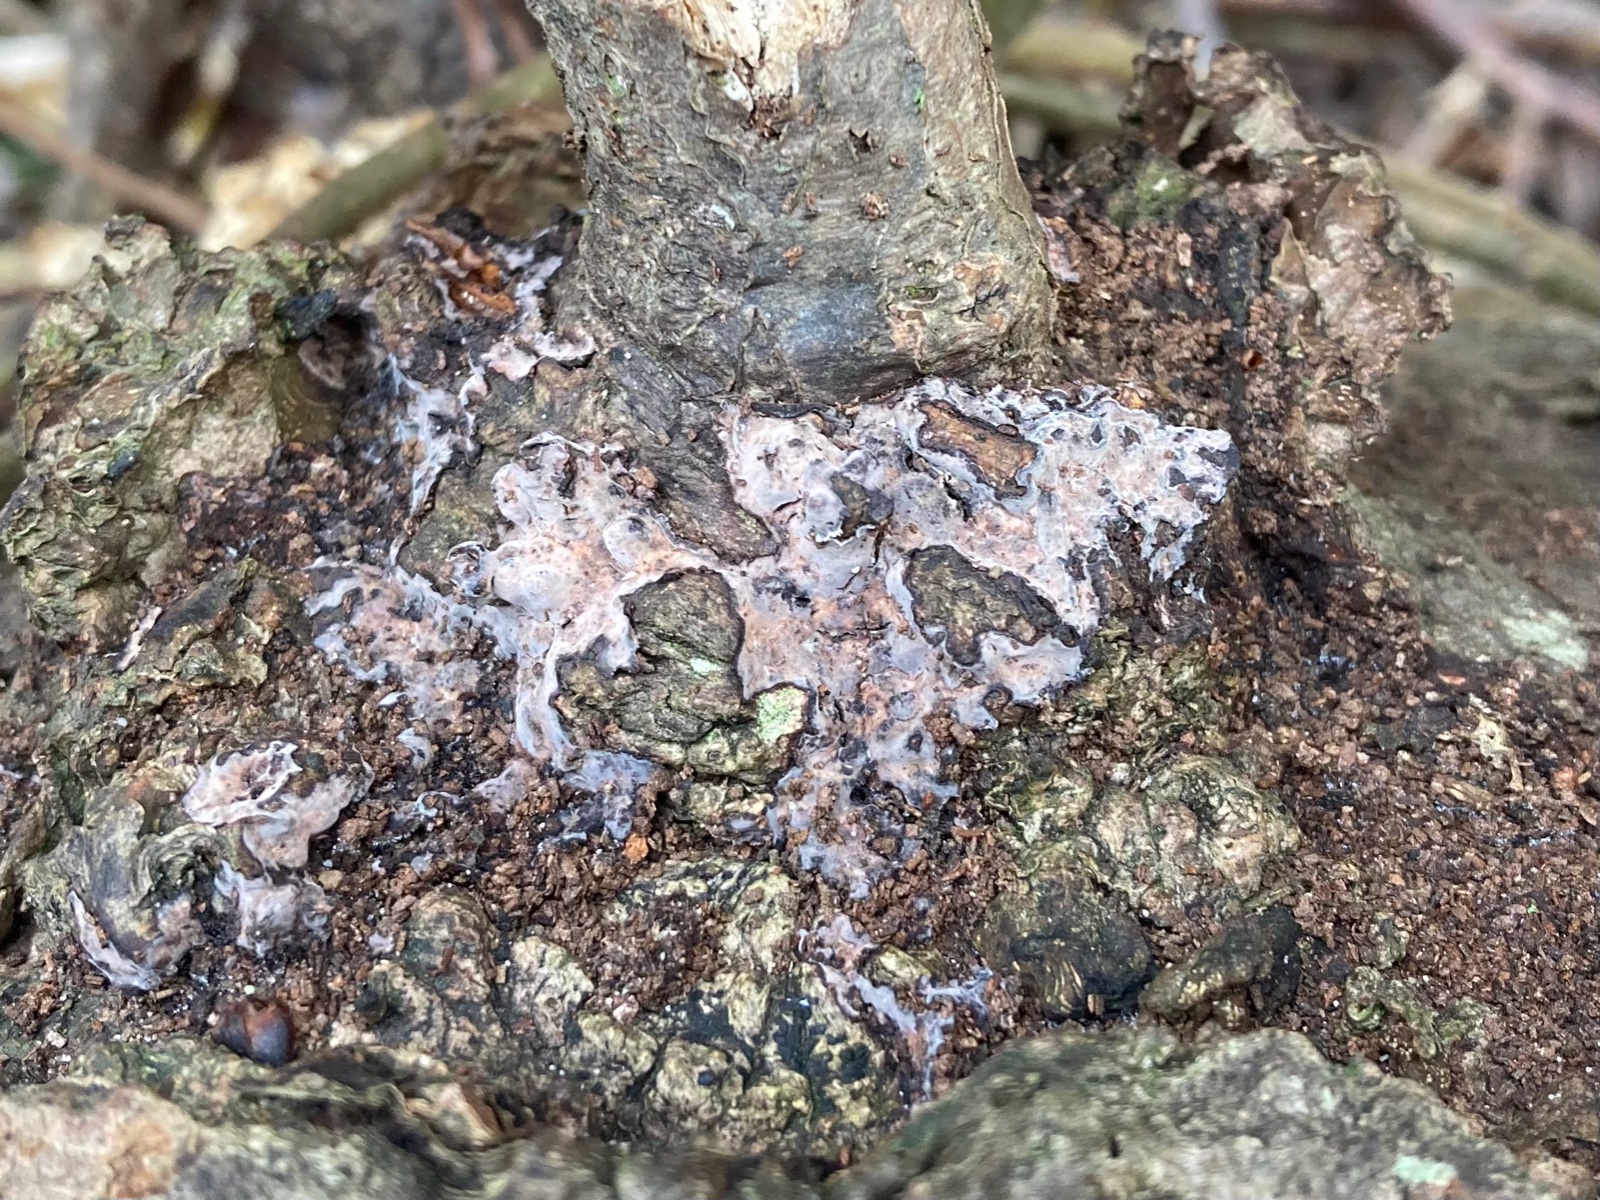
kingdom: Fungi
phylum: Basidiomycota
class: Agaricomycetes
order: Russulales
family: Peniophoraceae
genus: Peniophora
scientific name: Peniophora quercina
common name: ege-voksskind
